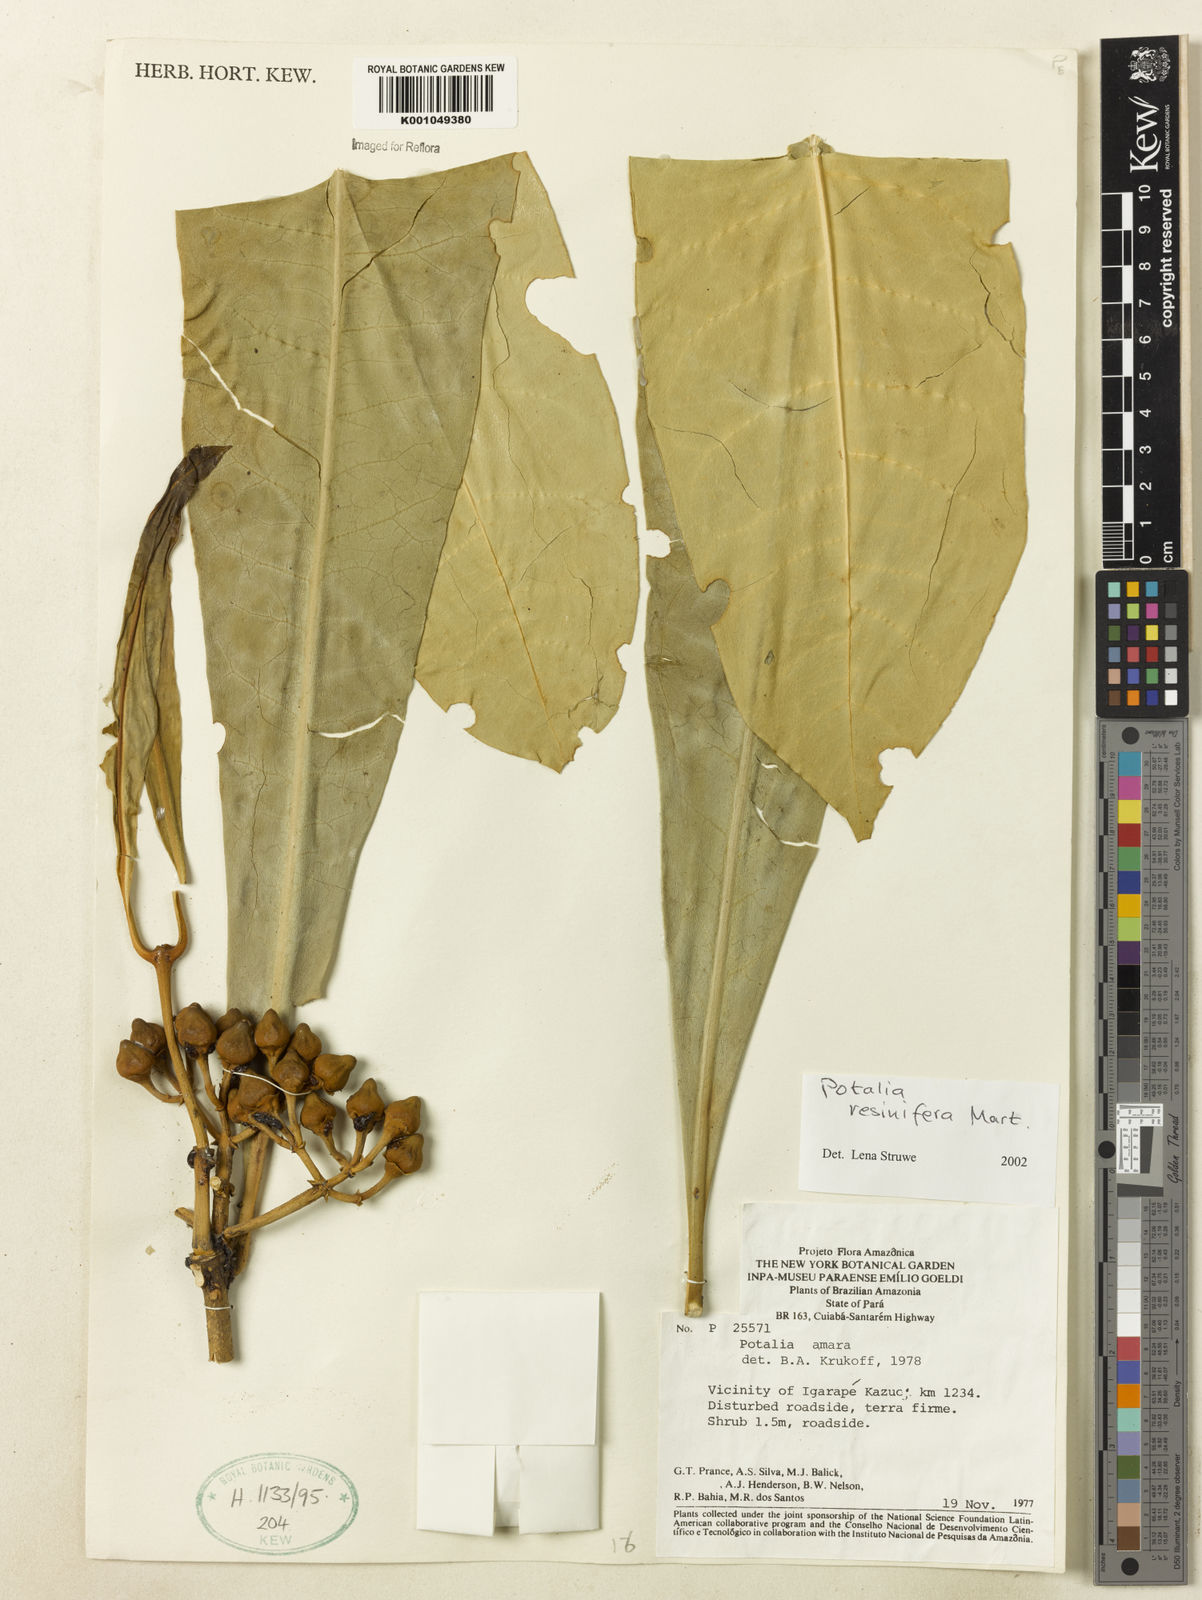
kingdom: Plantae
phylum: Tracheophyta
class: Magnoliopsida
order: Gentianales
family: Gentianaceae
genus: Potalia
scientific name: Potalia resinifera
